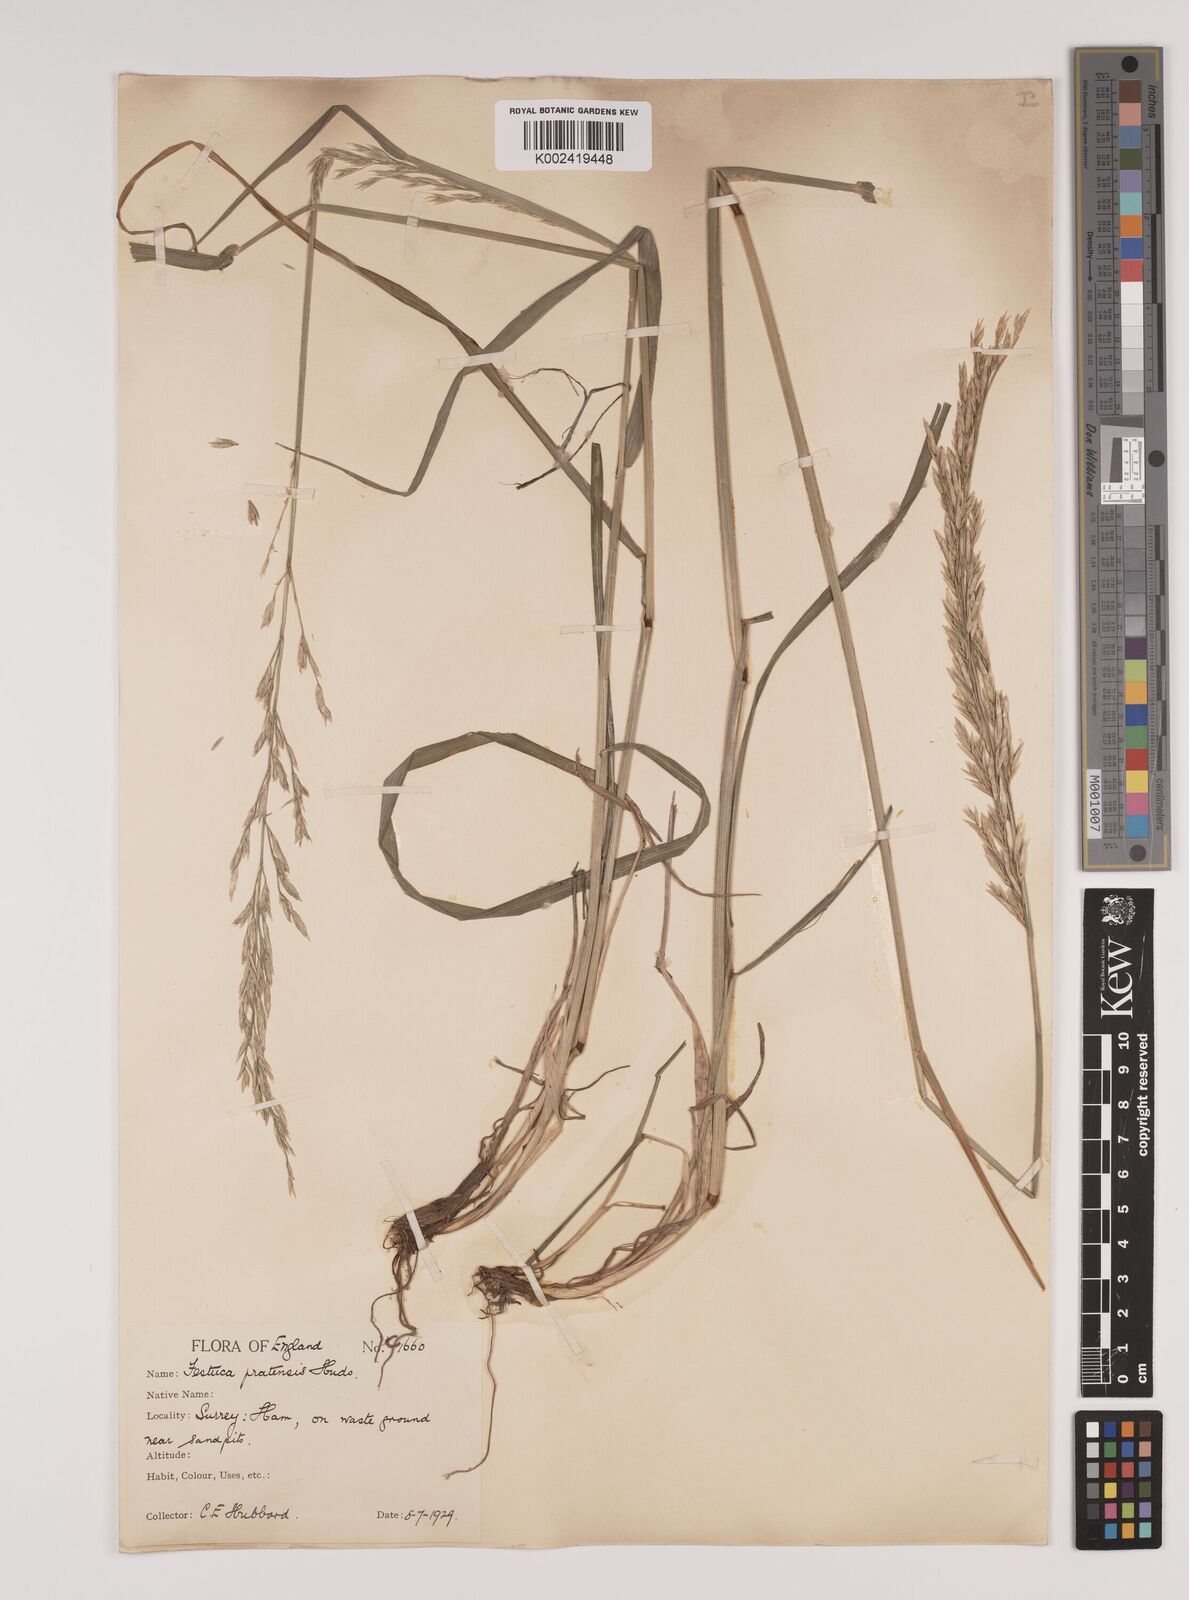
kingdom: Plantae
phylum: Tracheophyta
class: Liliopsida
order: Poales
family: Poaceae
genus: Lolium
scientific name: Lolium pratense
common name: Dover grass
